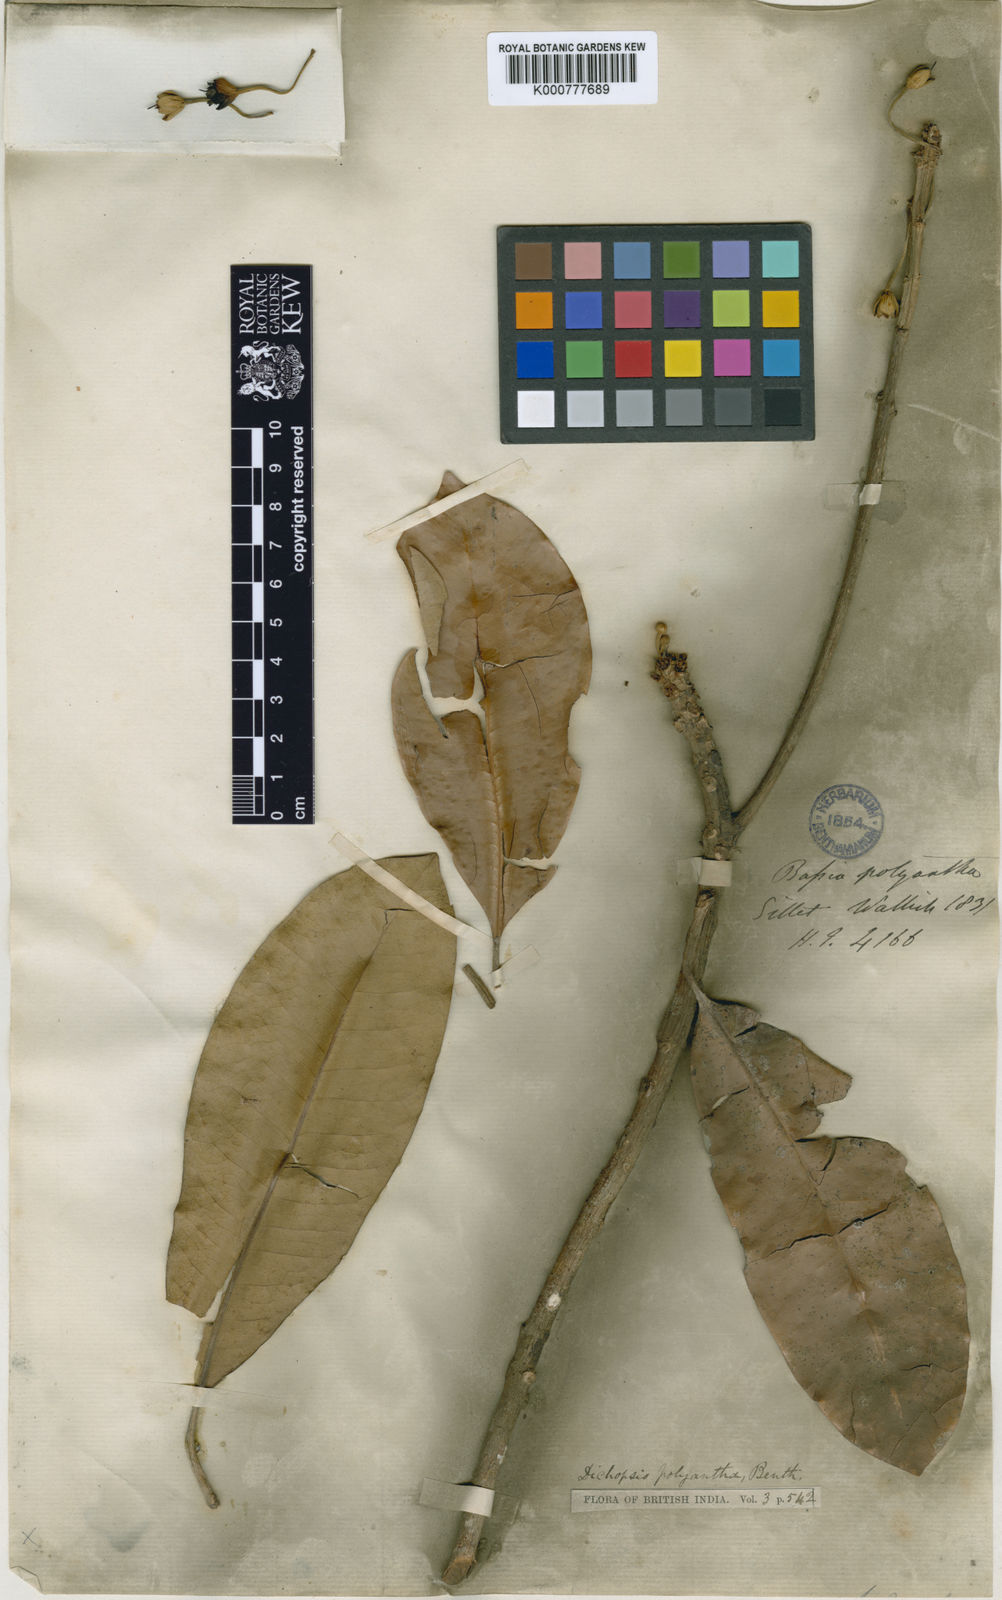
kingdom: Plantae
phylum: Tracheophyta
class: Magnoliopsida
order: Ericales
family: Sapotaceae
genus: Palaquium
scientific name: Palaquium polyanthum
